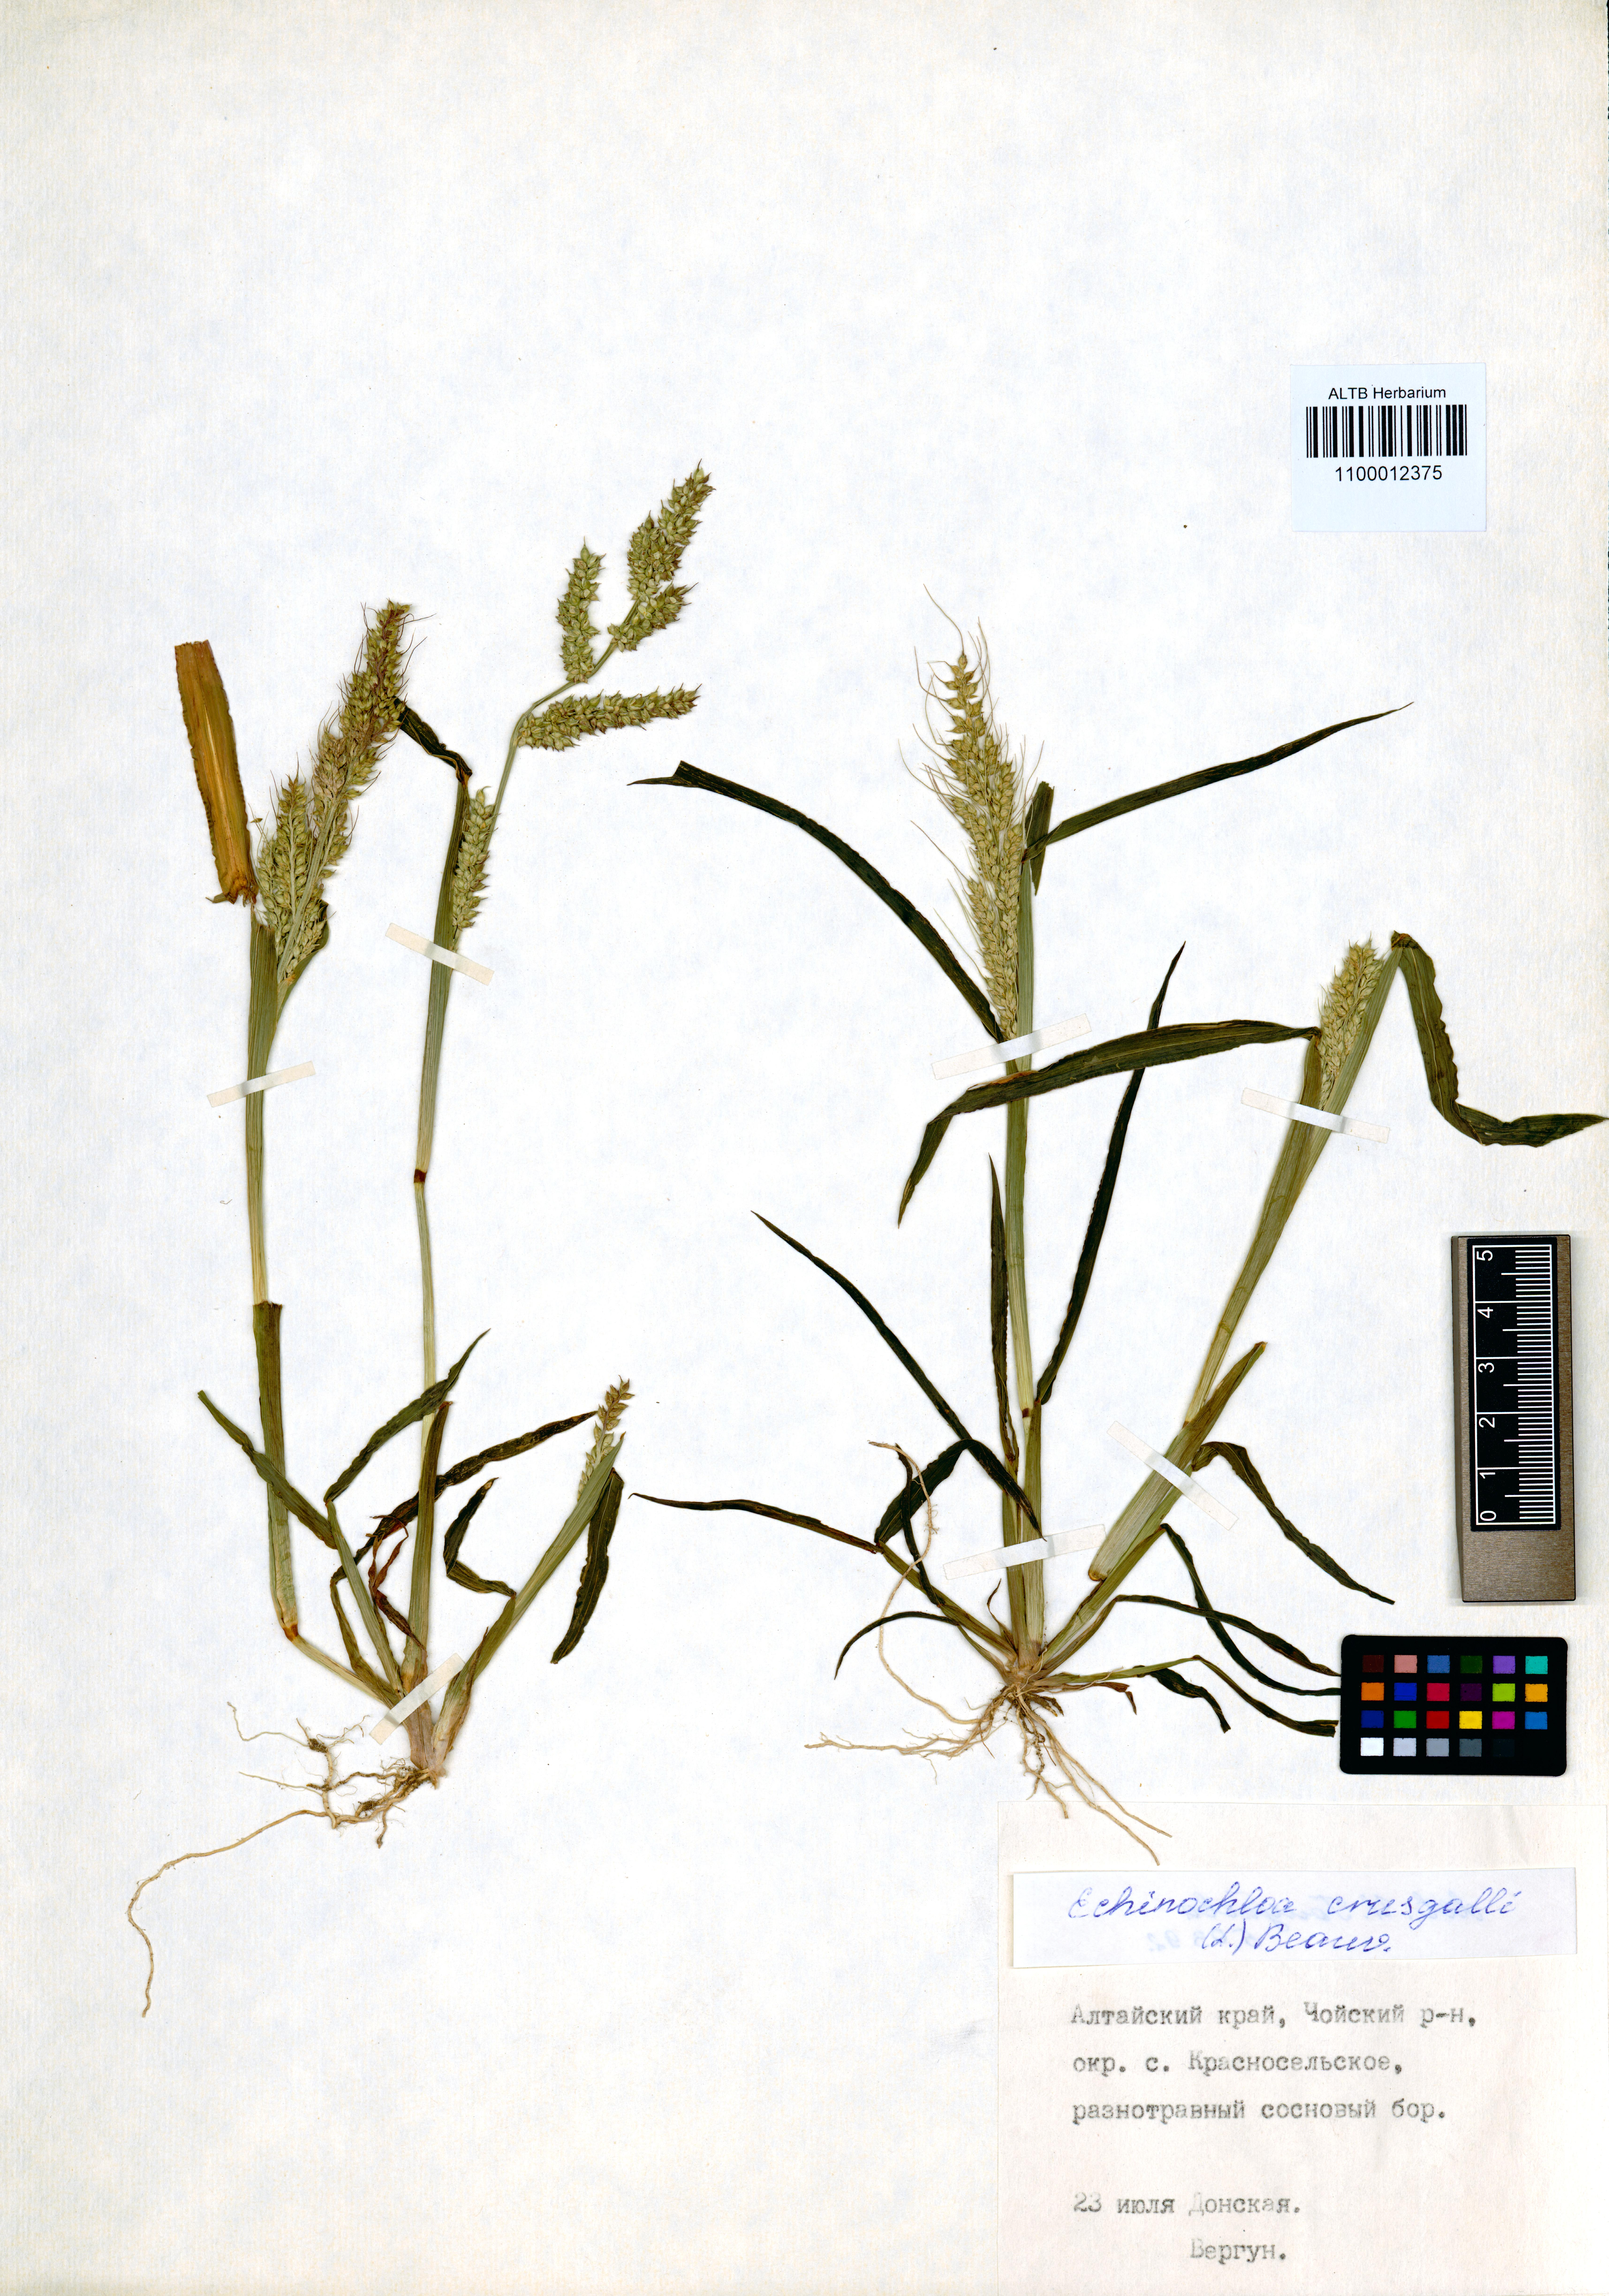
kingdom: Plantae
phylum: Tracheophyta
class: Liliopsida
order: Poales
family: Poaceae
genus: Echinochloa
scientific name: Echinochloa crus-galli
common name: Cockspur
